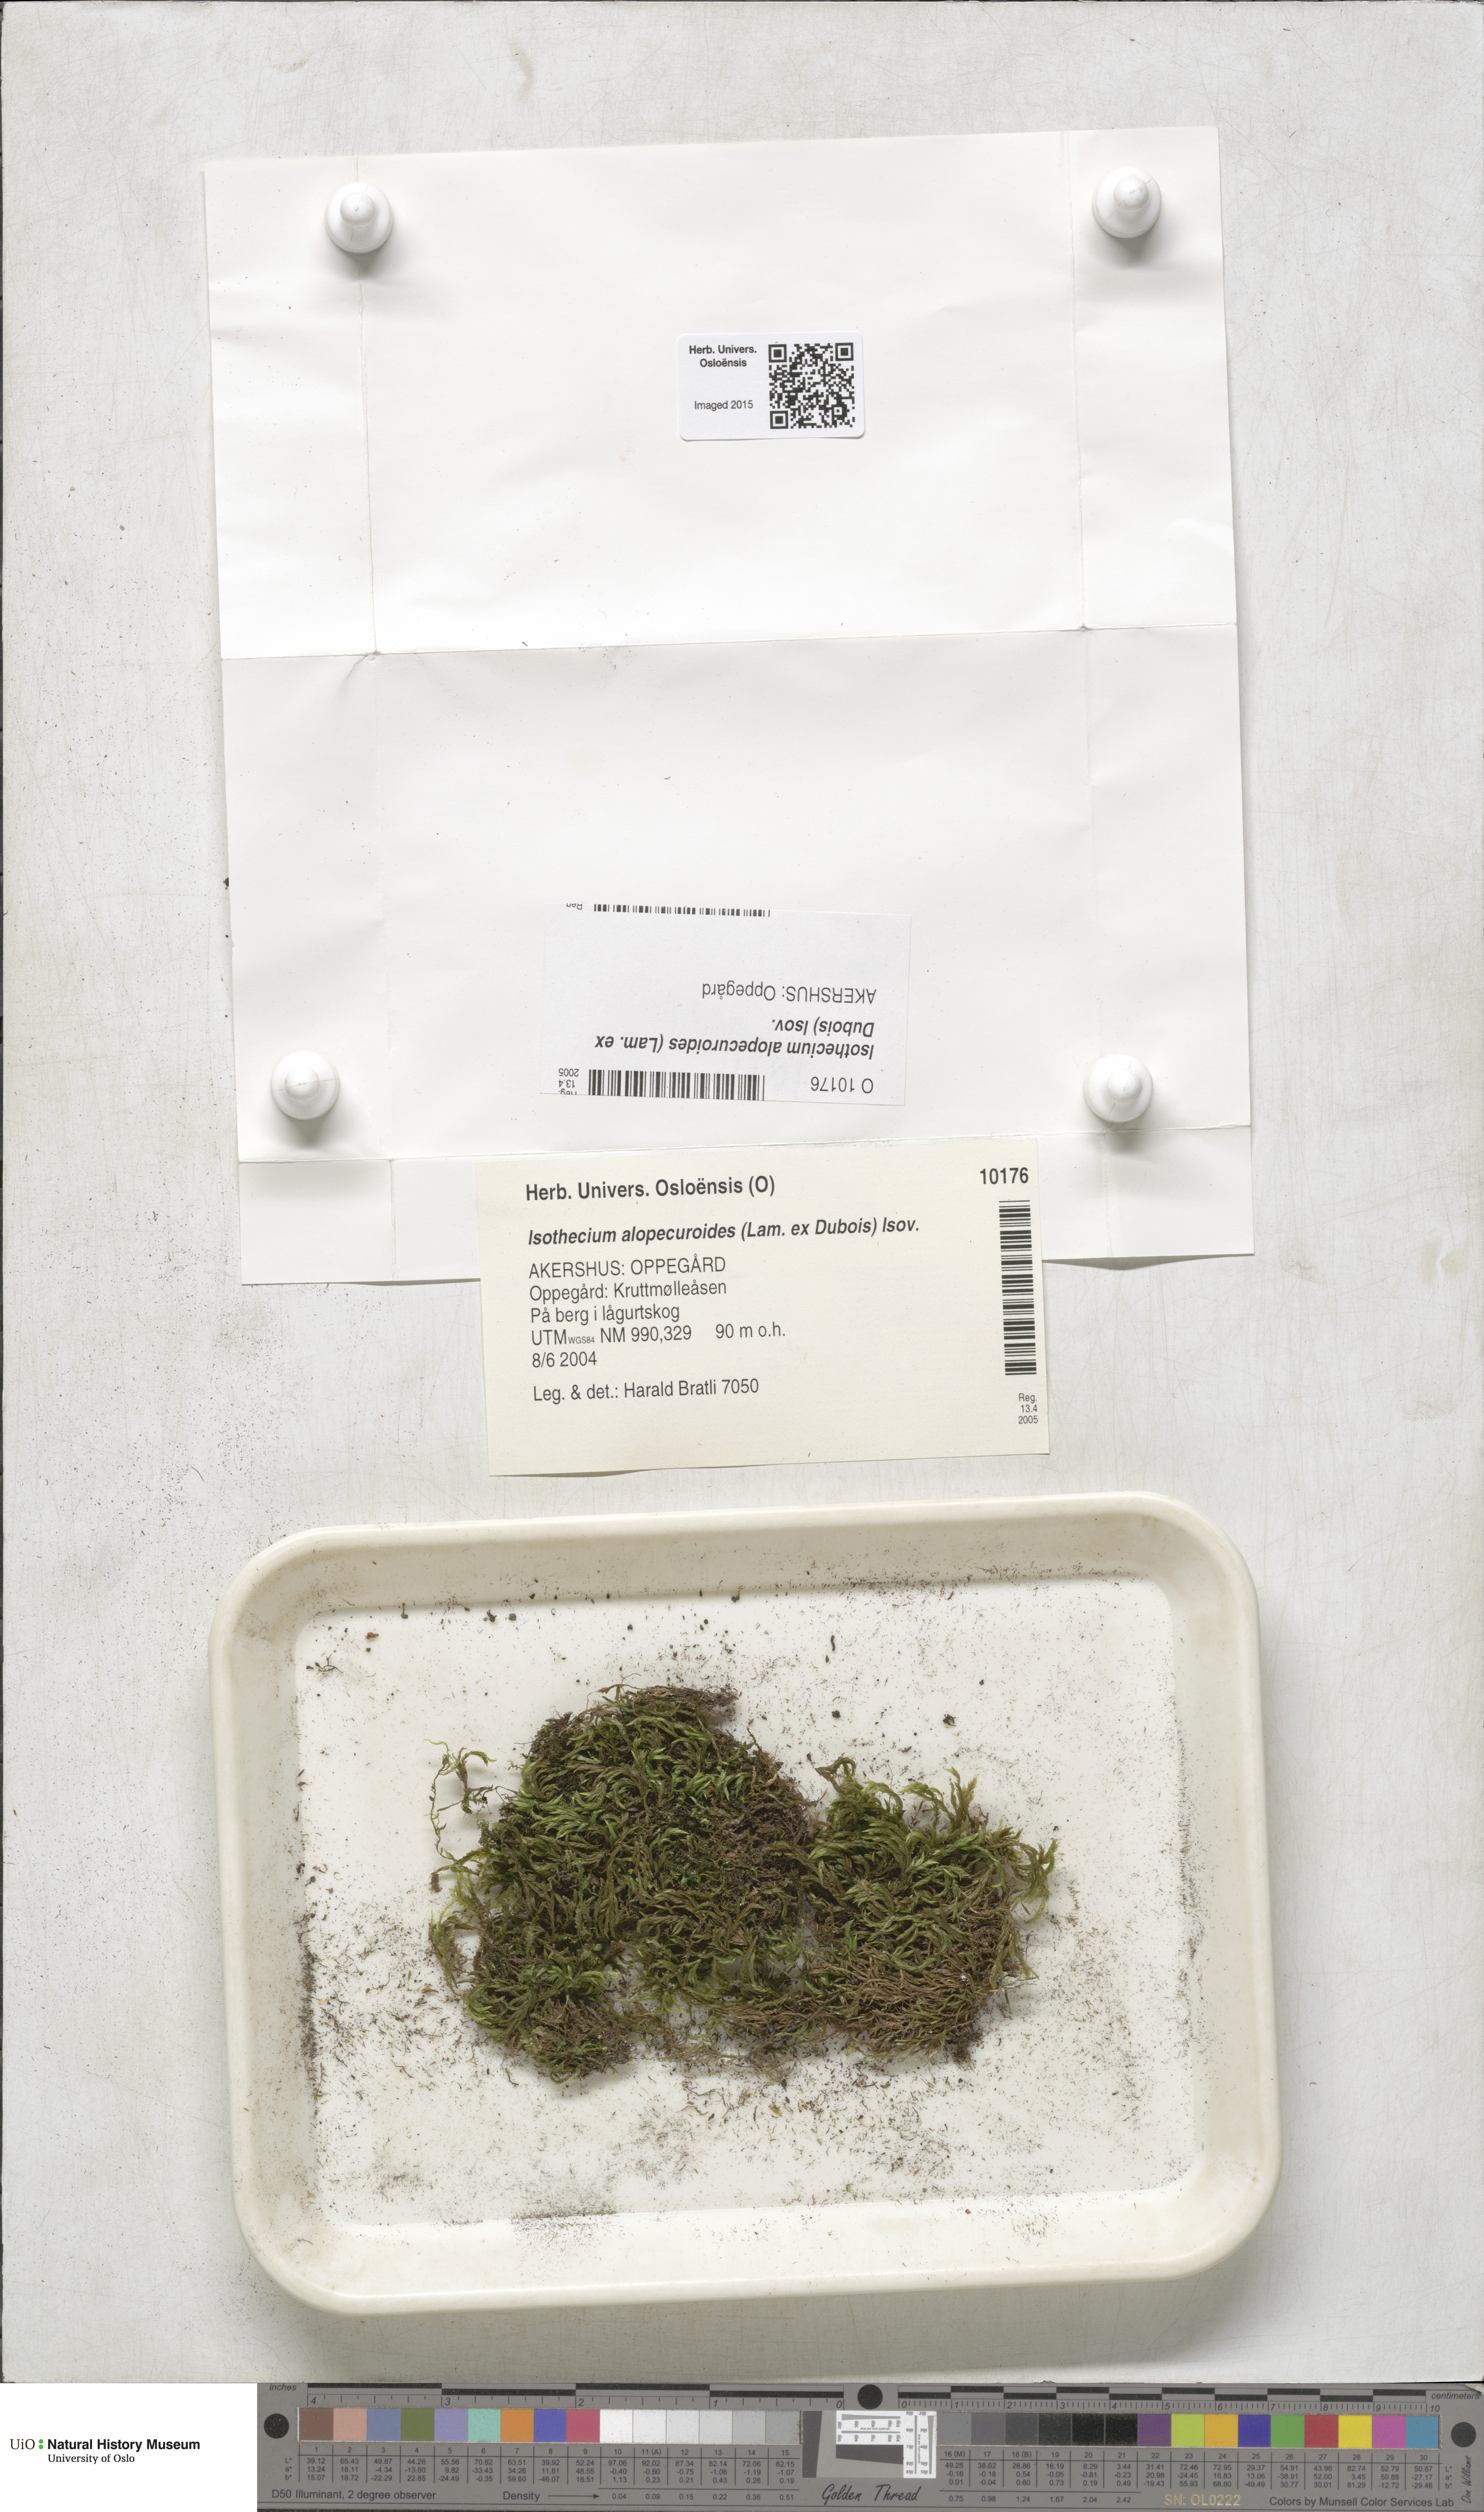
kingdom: Plantae
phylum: Bryophyta
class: Bryopsida
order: Hypnales
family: Lembophyllaceae
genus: Isothecium
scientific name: Isothecium alopecuroides
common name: Larger mouse-tail moss
